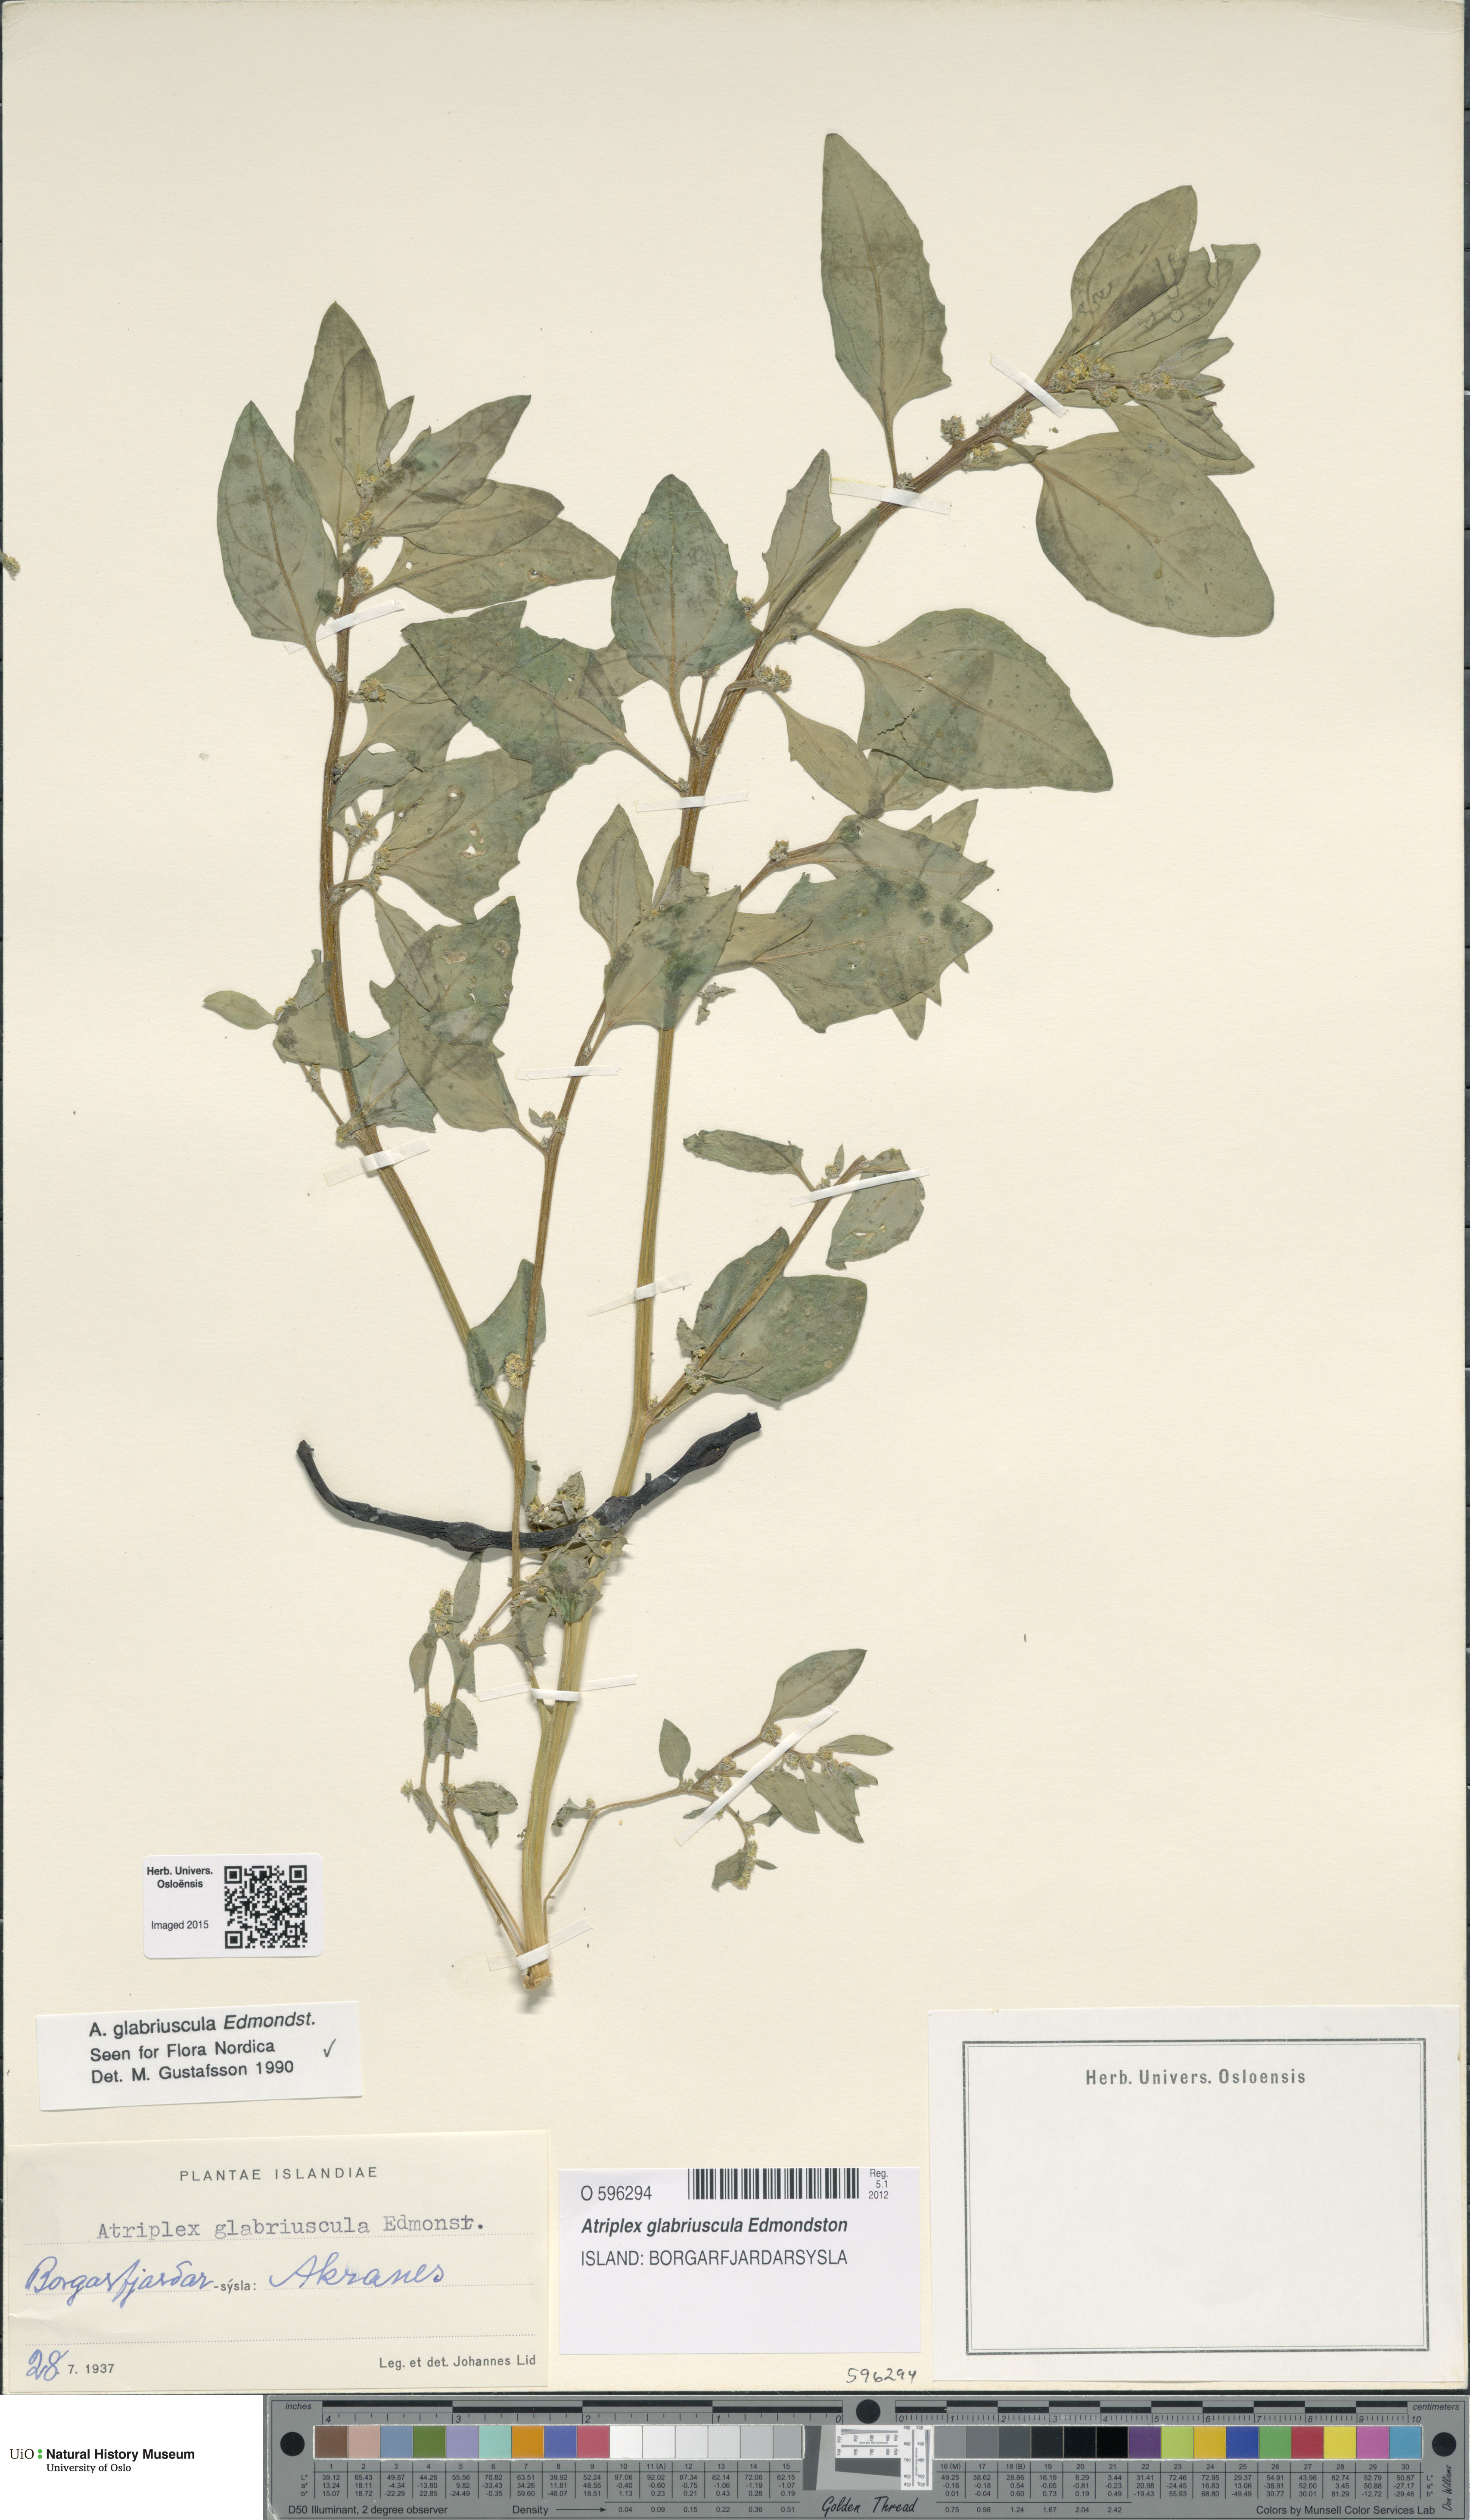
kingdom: Plantae
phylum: Tracheophyta
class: Magnoliopsida
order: Caryophyllales
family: Amaranthaceae
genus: Atriplex
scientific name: Atriplex glabriuscula
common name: Babington's orache
